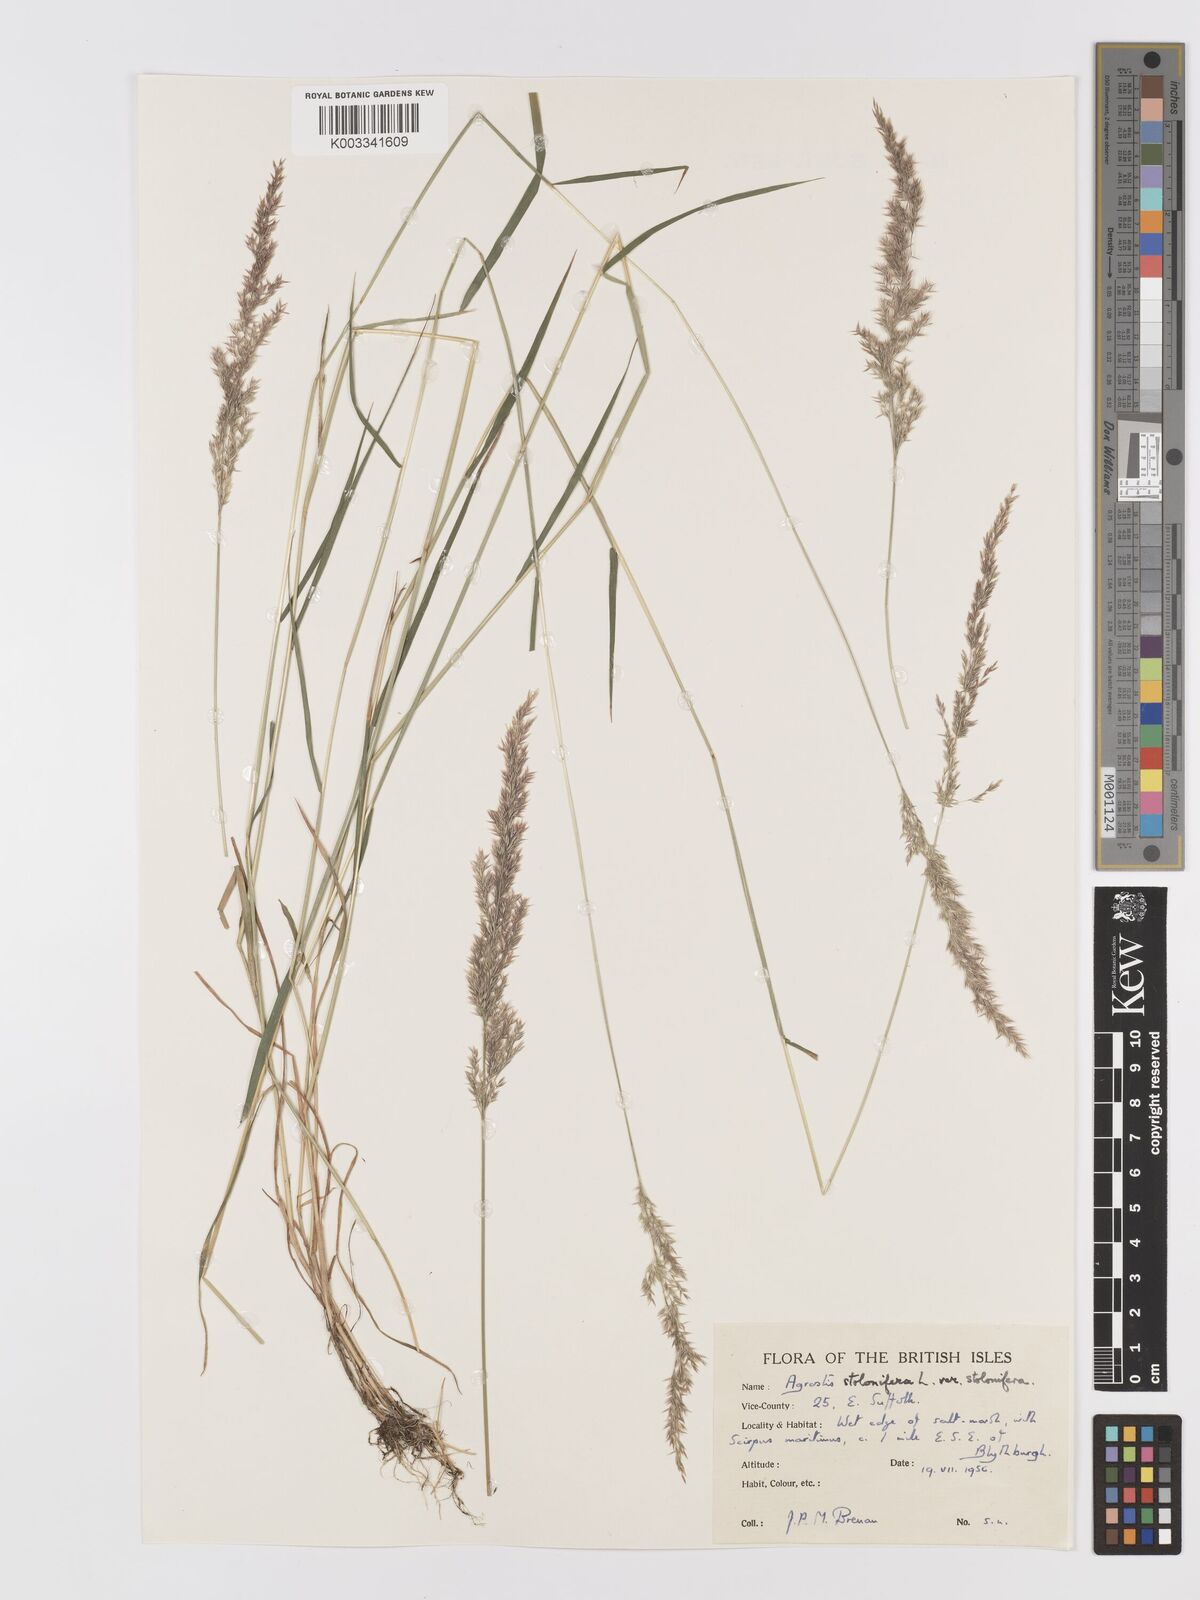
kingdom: Plantae
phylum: Tracheophyta
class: Liliopsida
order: Poales
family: Poaceae
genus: Agrostis
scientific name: Agrostis stolonifera
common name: Creeping bentgrass
